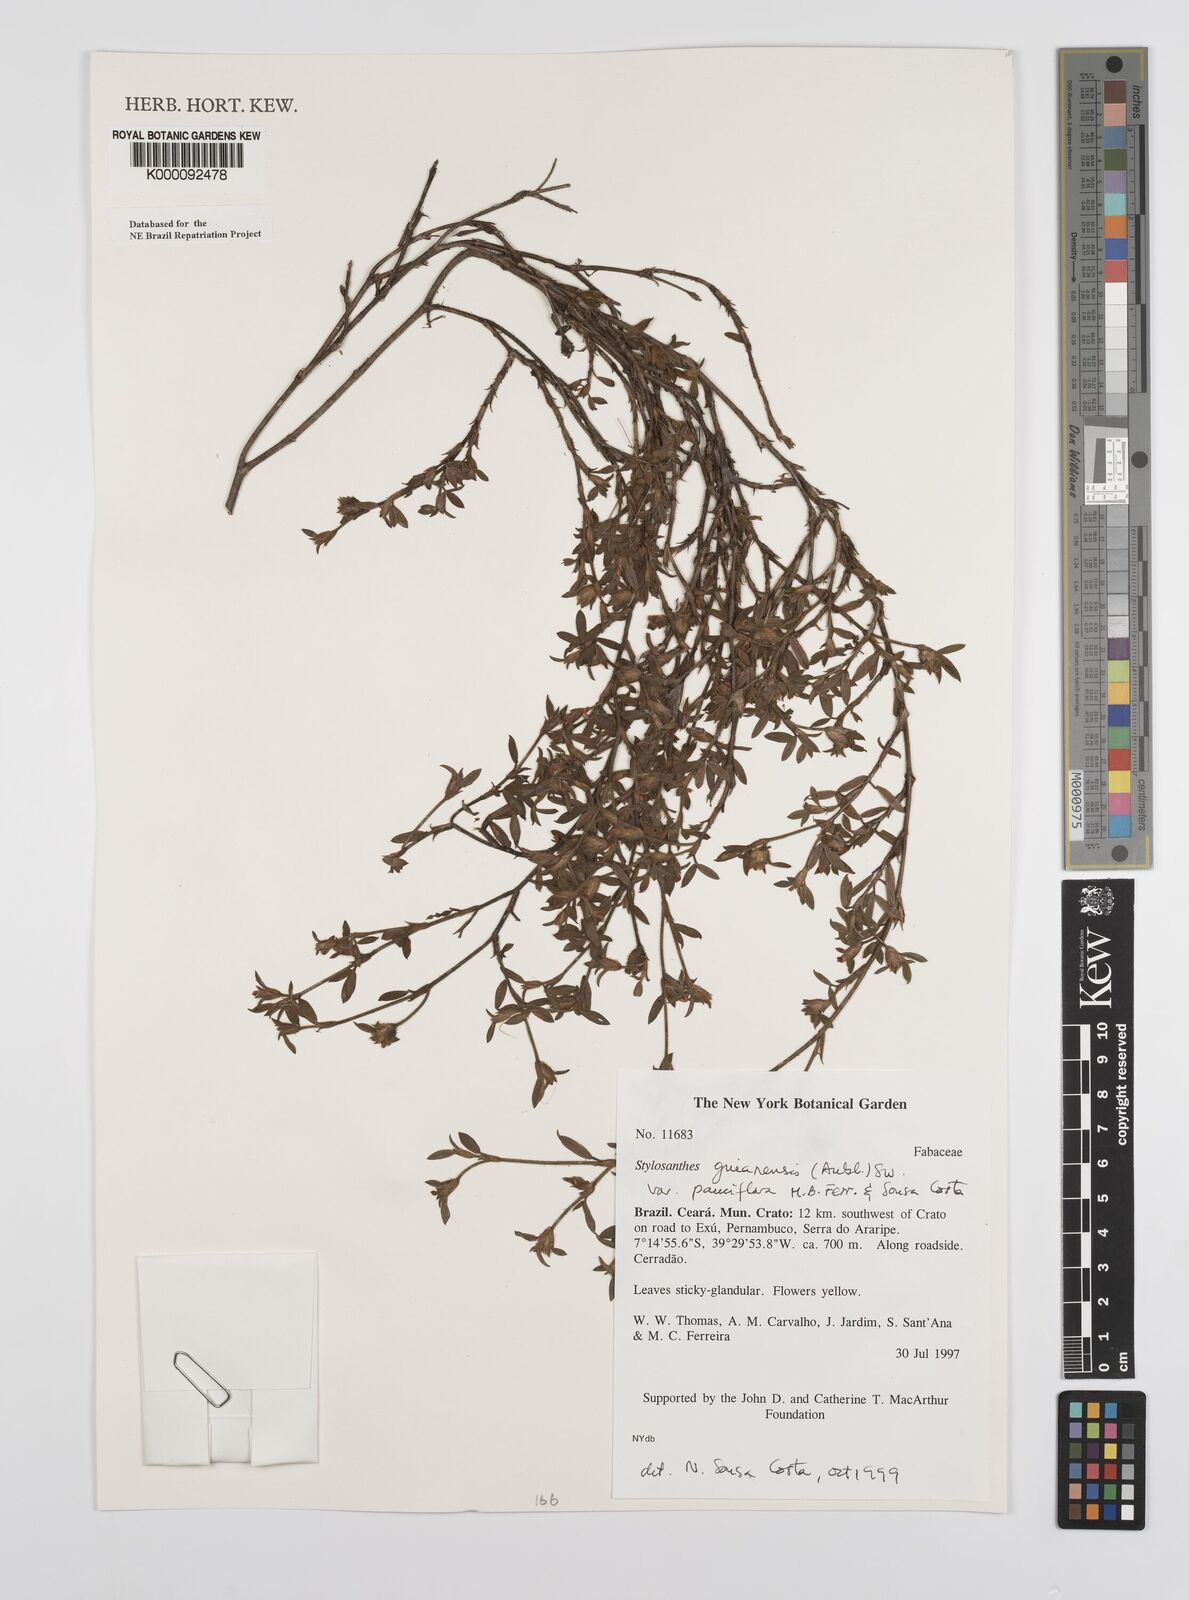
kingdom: Plantae
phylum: Tracheophyta
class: Magnoliopsida
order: Fabales
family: Fabaceae
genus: Stylosanthes
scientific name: Stylosanthes guianensis
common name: Pencil flower
